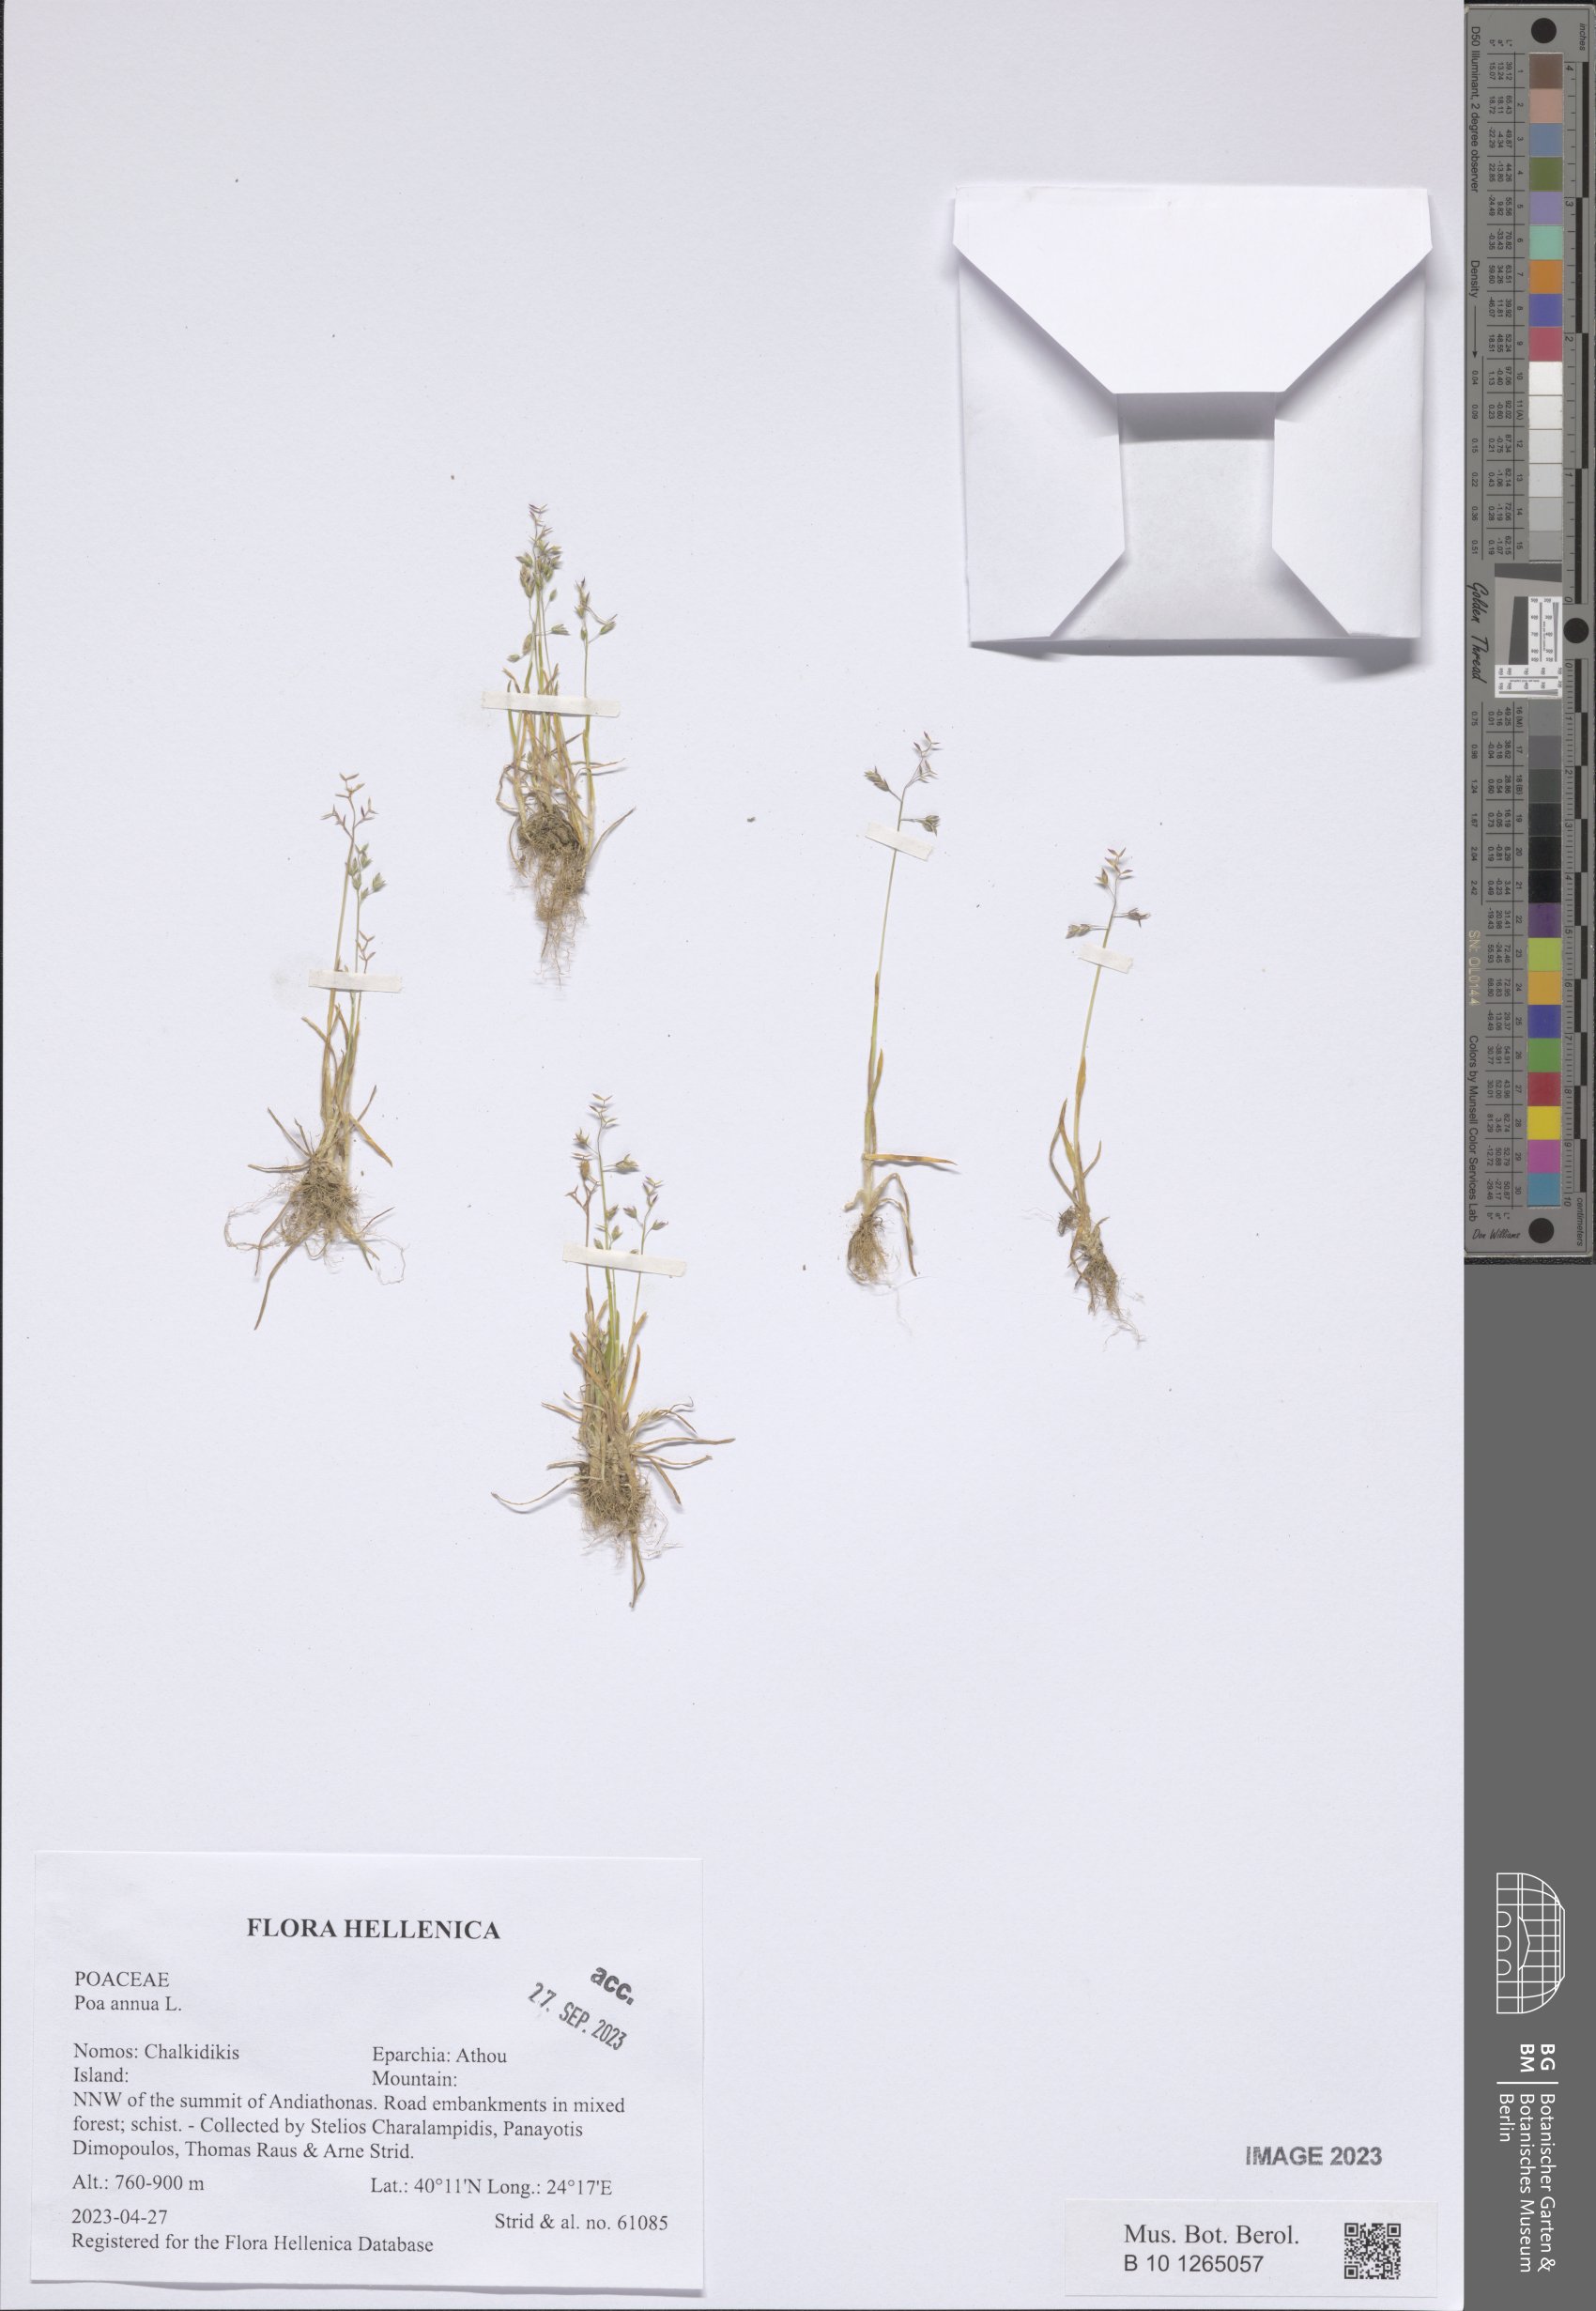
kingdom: Plantae
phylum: Tracheophyta
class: Liliopsida
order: Poales
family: Poaceae
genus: Poa
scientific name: Poa annua
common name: Annual bluegrass
